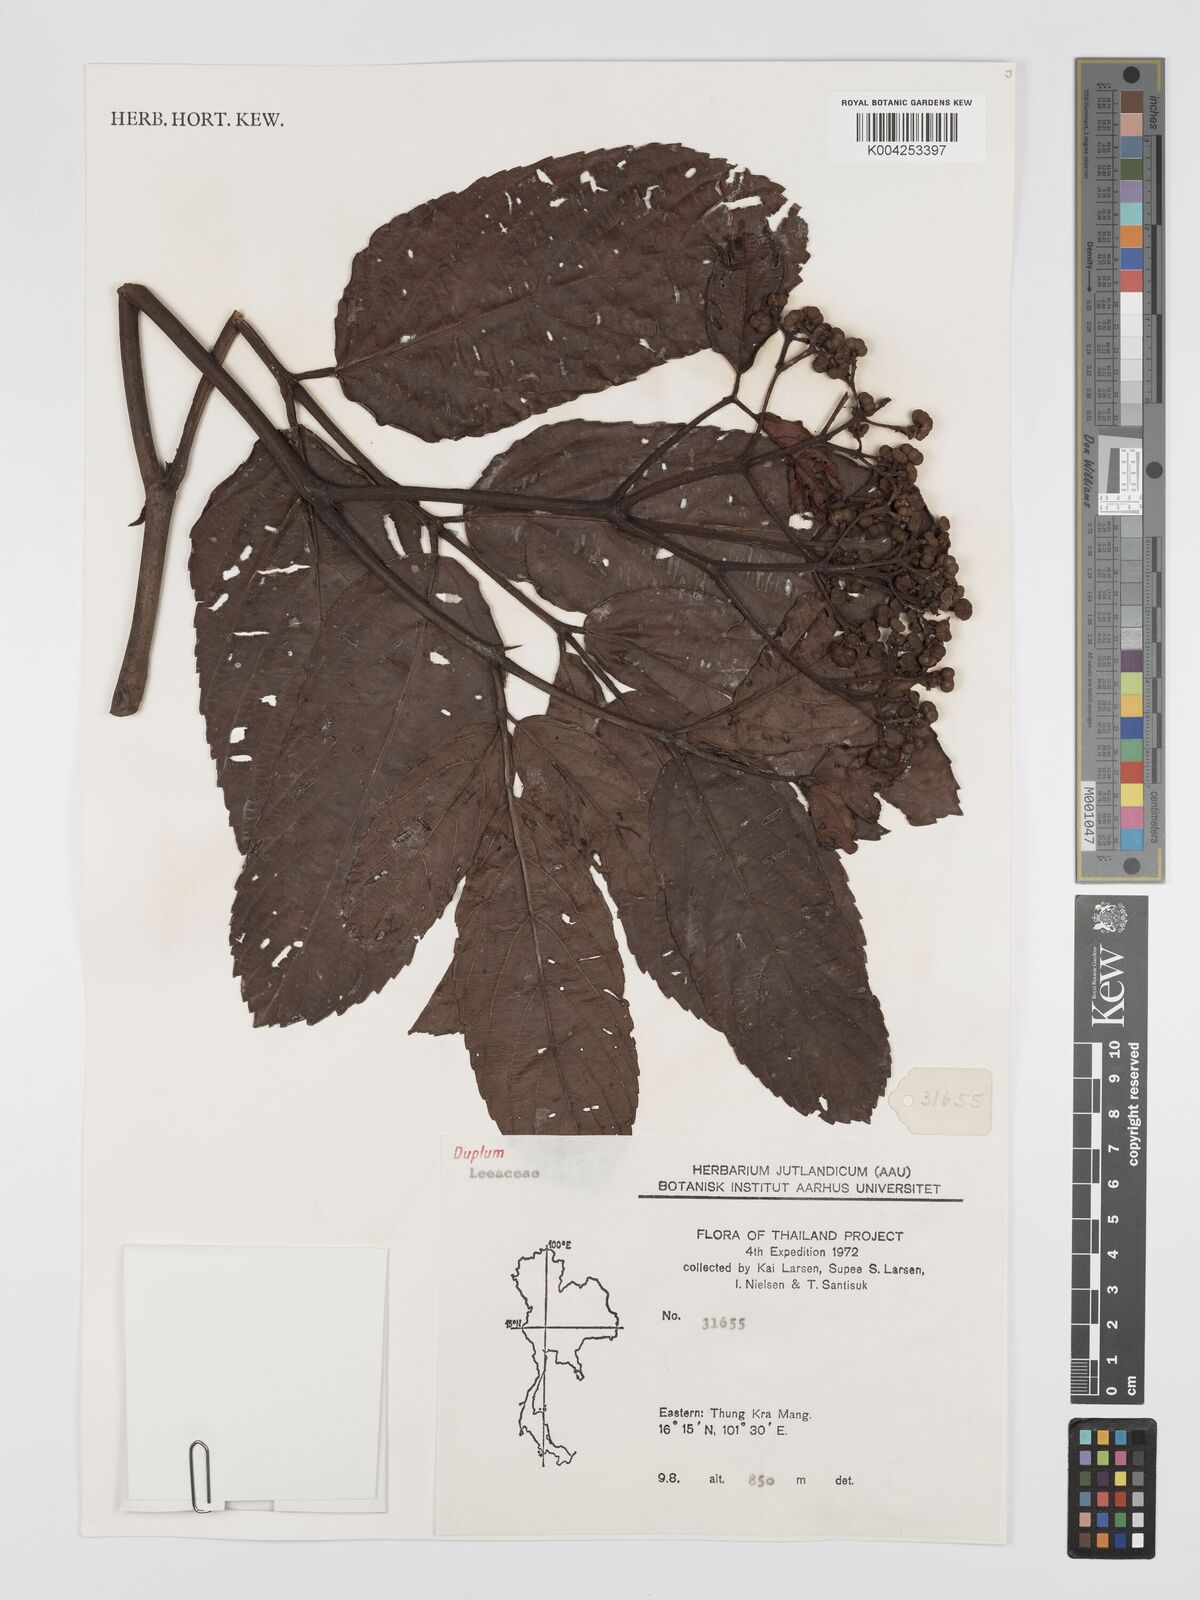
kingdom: Plantae
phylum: Tracheophyta
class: Magnoliopsida
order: Vitales
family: Vitaceae
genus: Leea
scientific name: Leea
